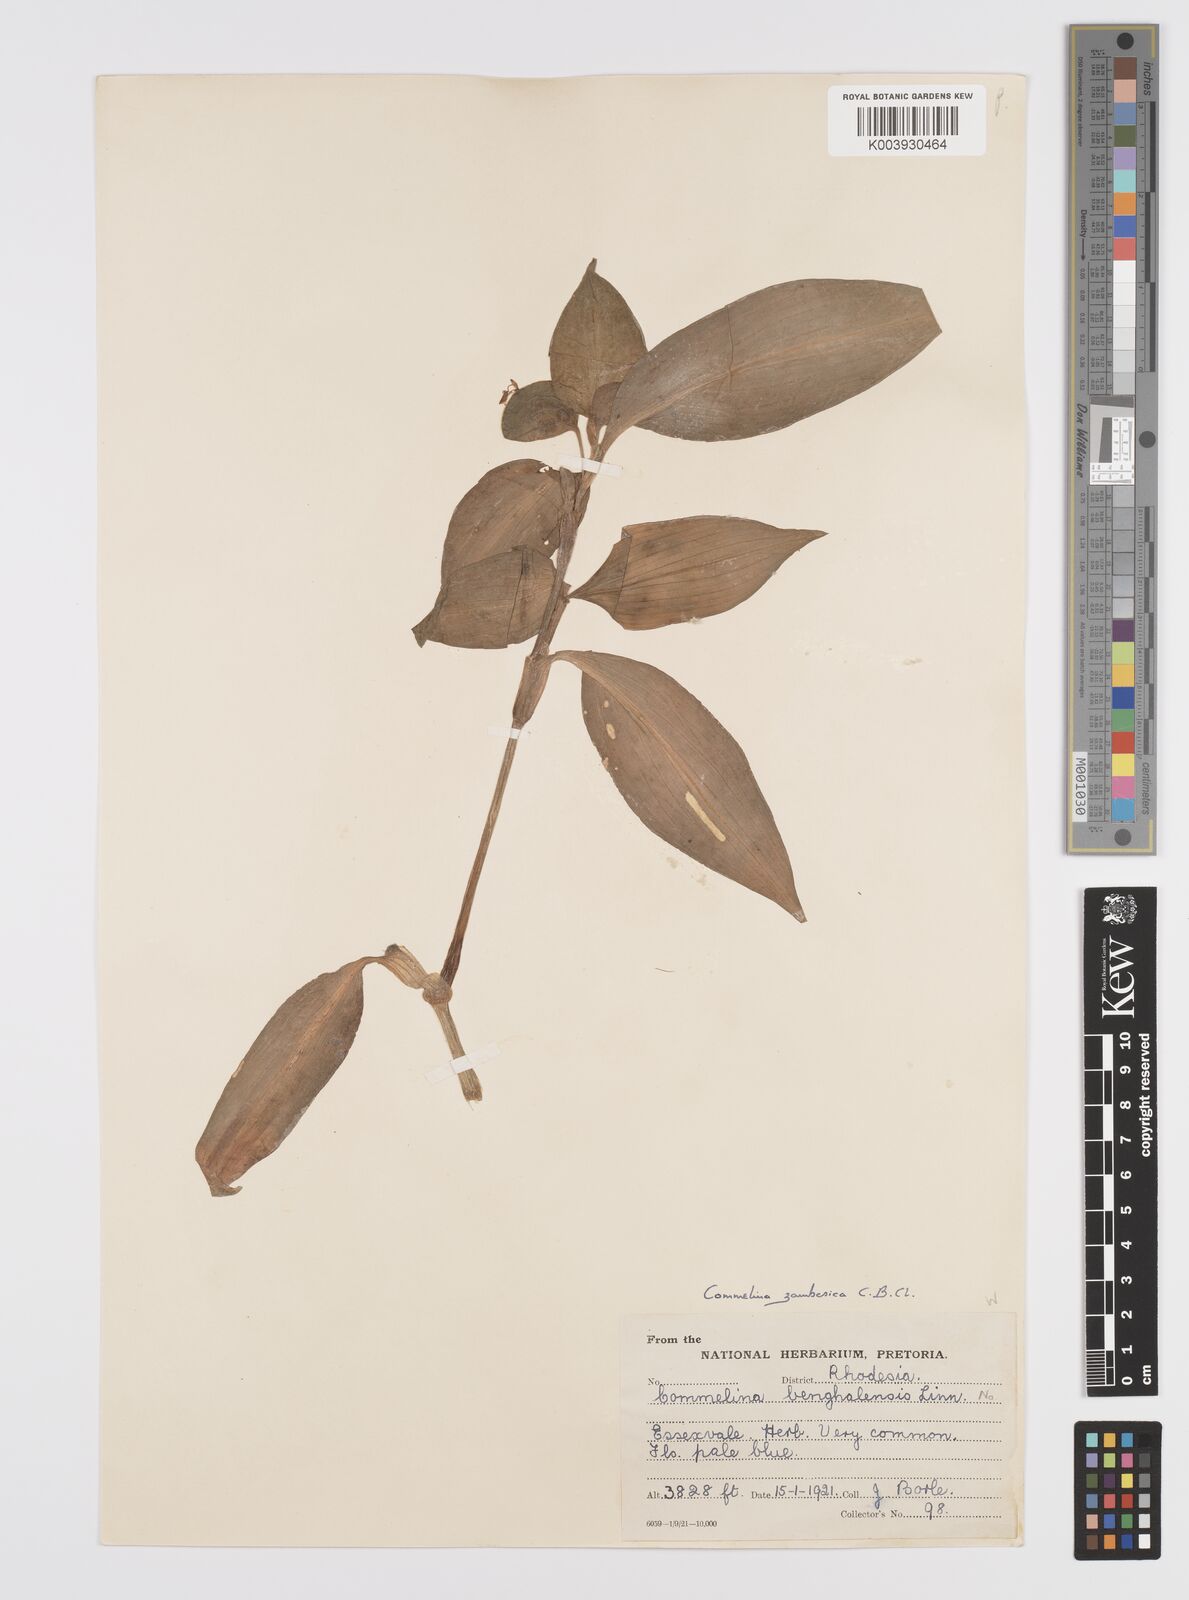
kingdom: Plantae
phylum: Tracheophyta
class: Liliopsida
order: Commelinales
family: Commelinaceae
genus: Commelina
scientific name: Commelina zambesica
